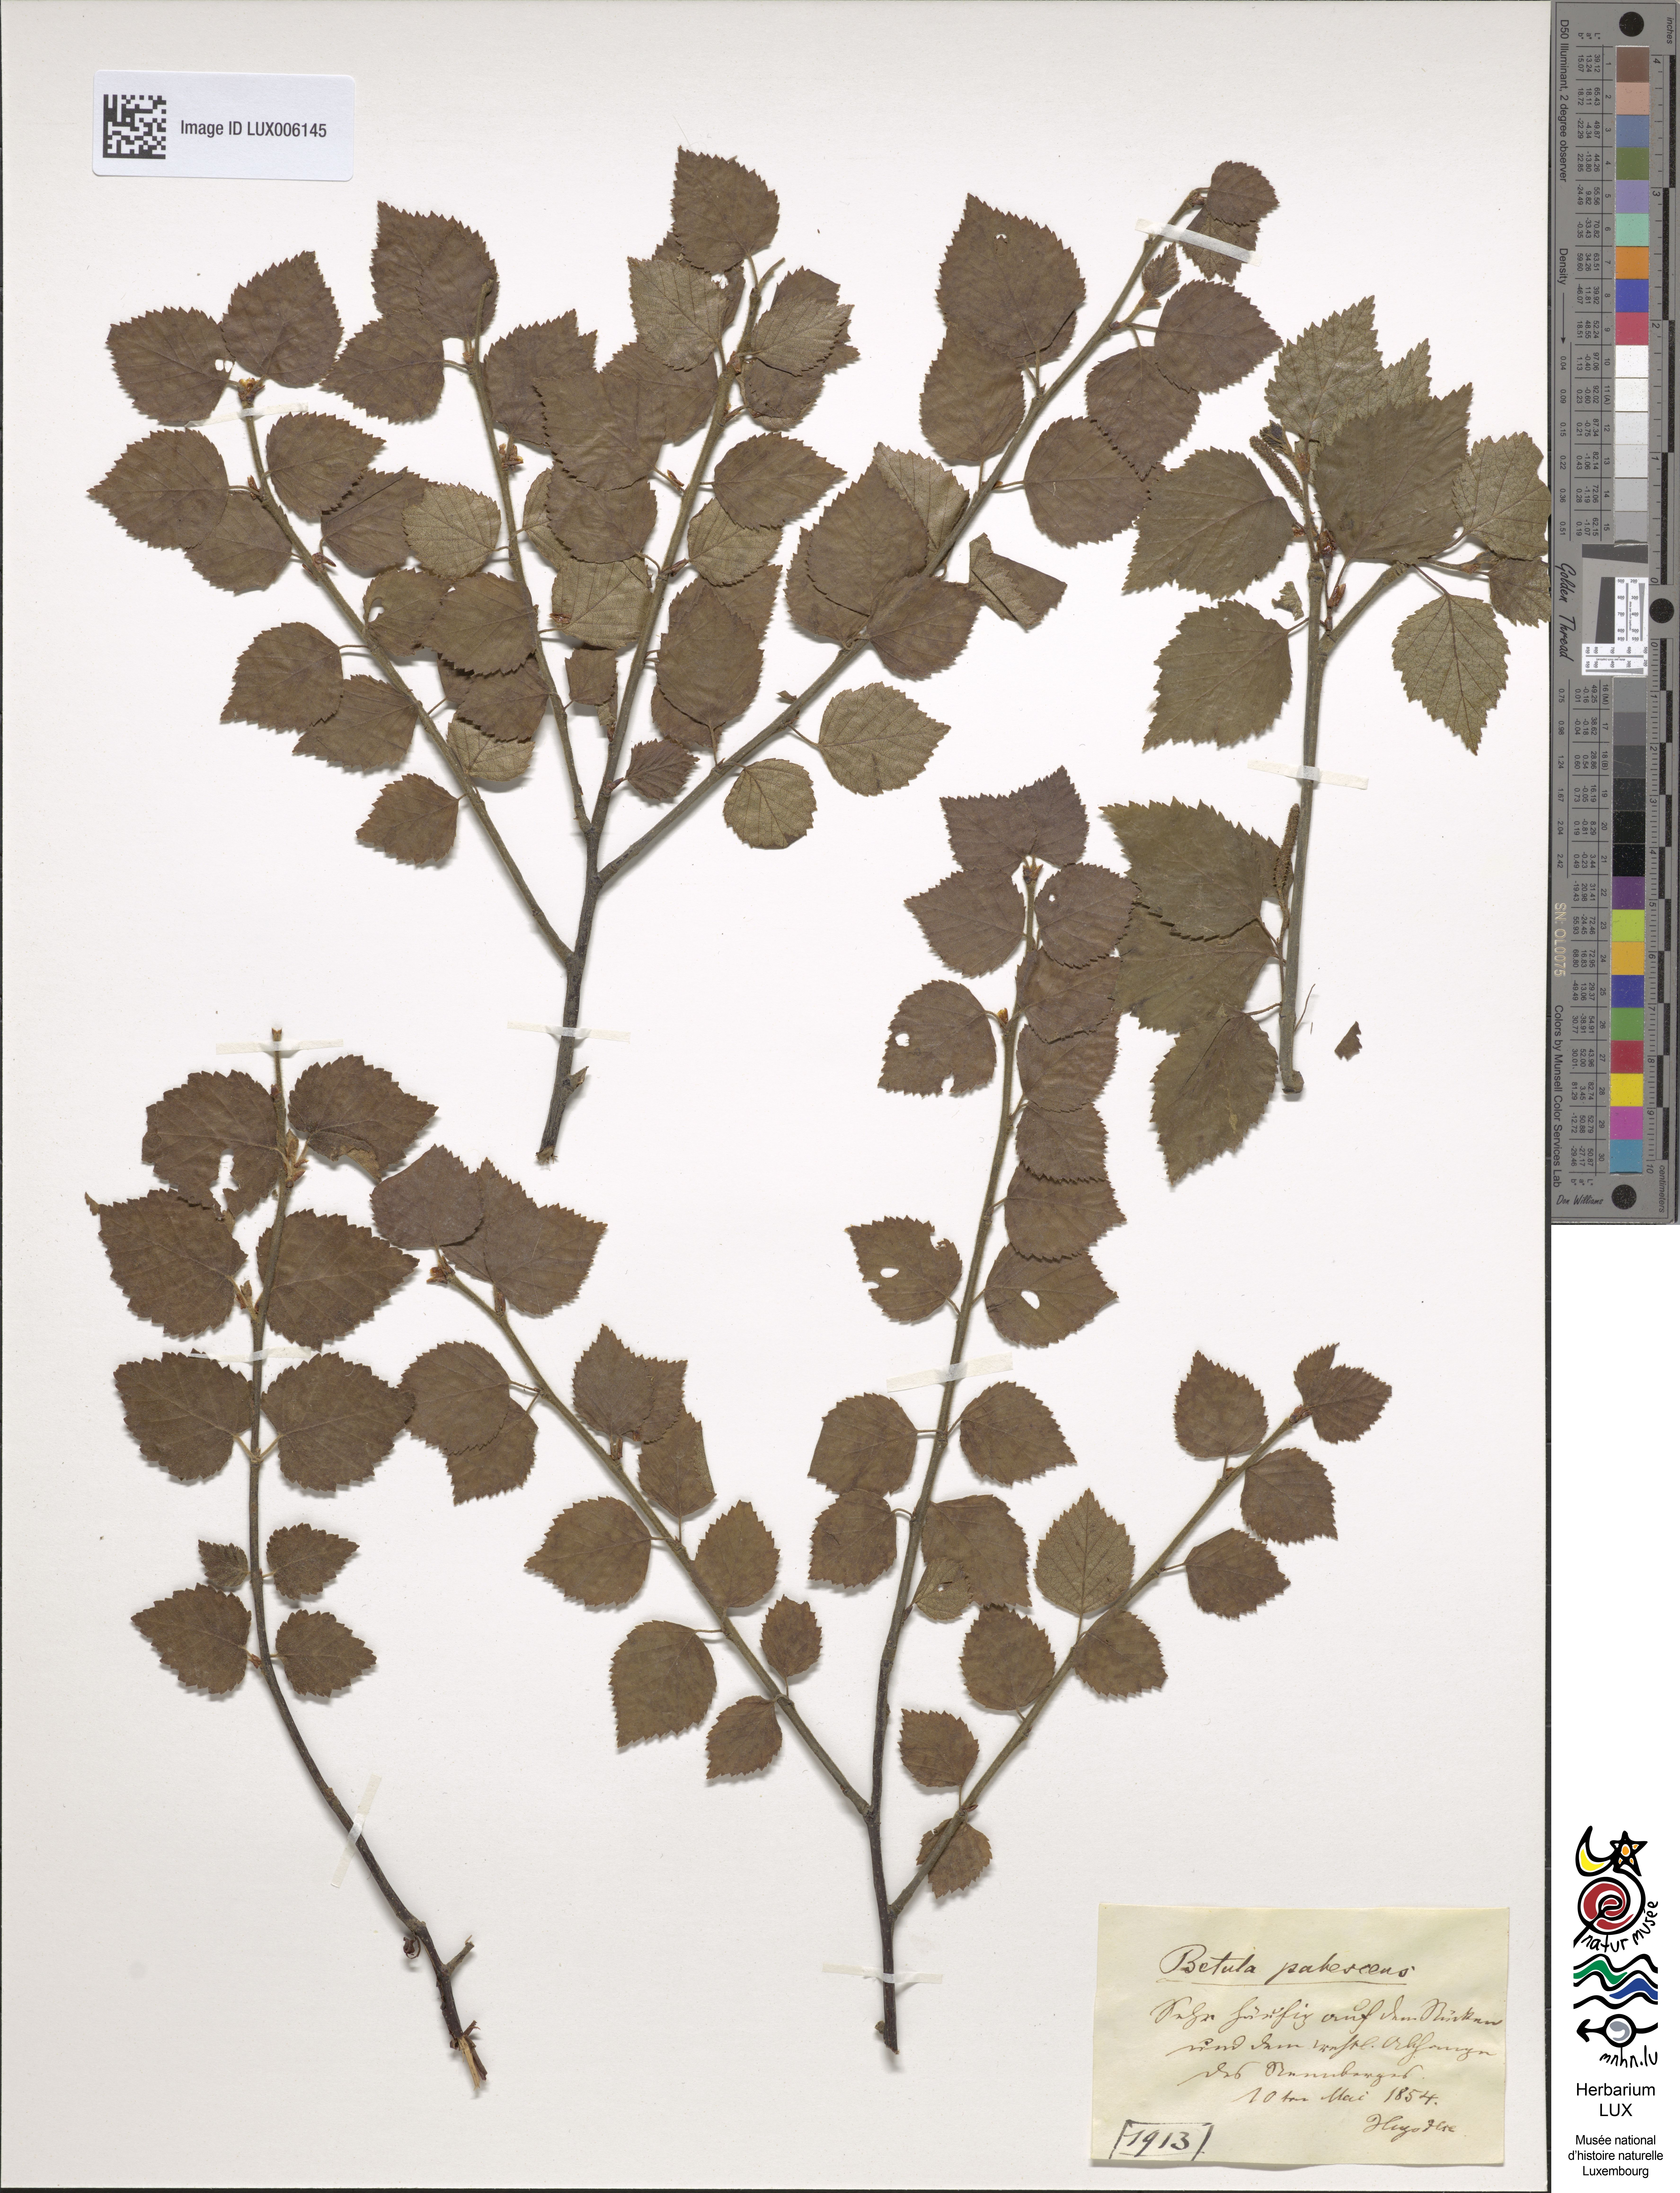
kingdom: Plantae
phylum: Tracheophyta
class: Magnoliopsida
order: Fagales
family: Betulaceae
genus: Betula
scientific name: Betula pubescens
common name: Downy birch
